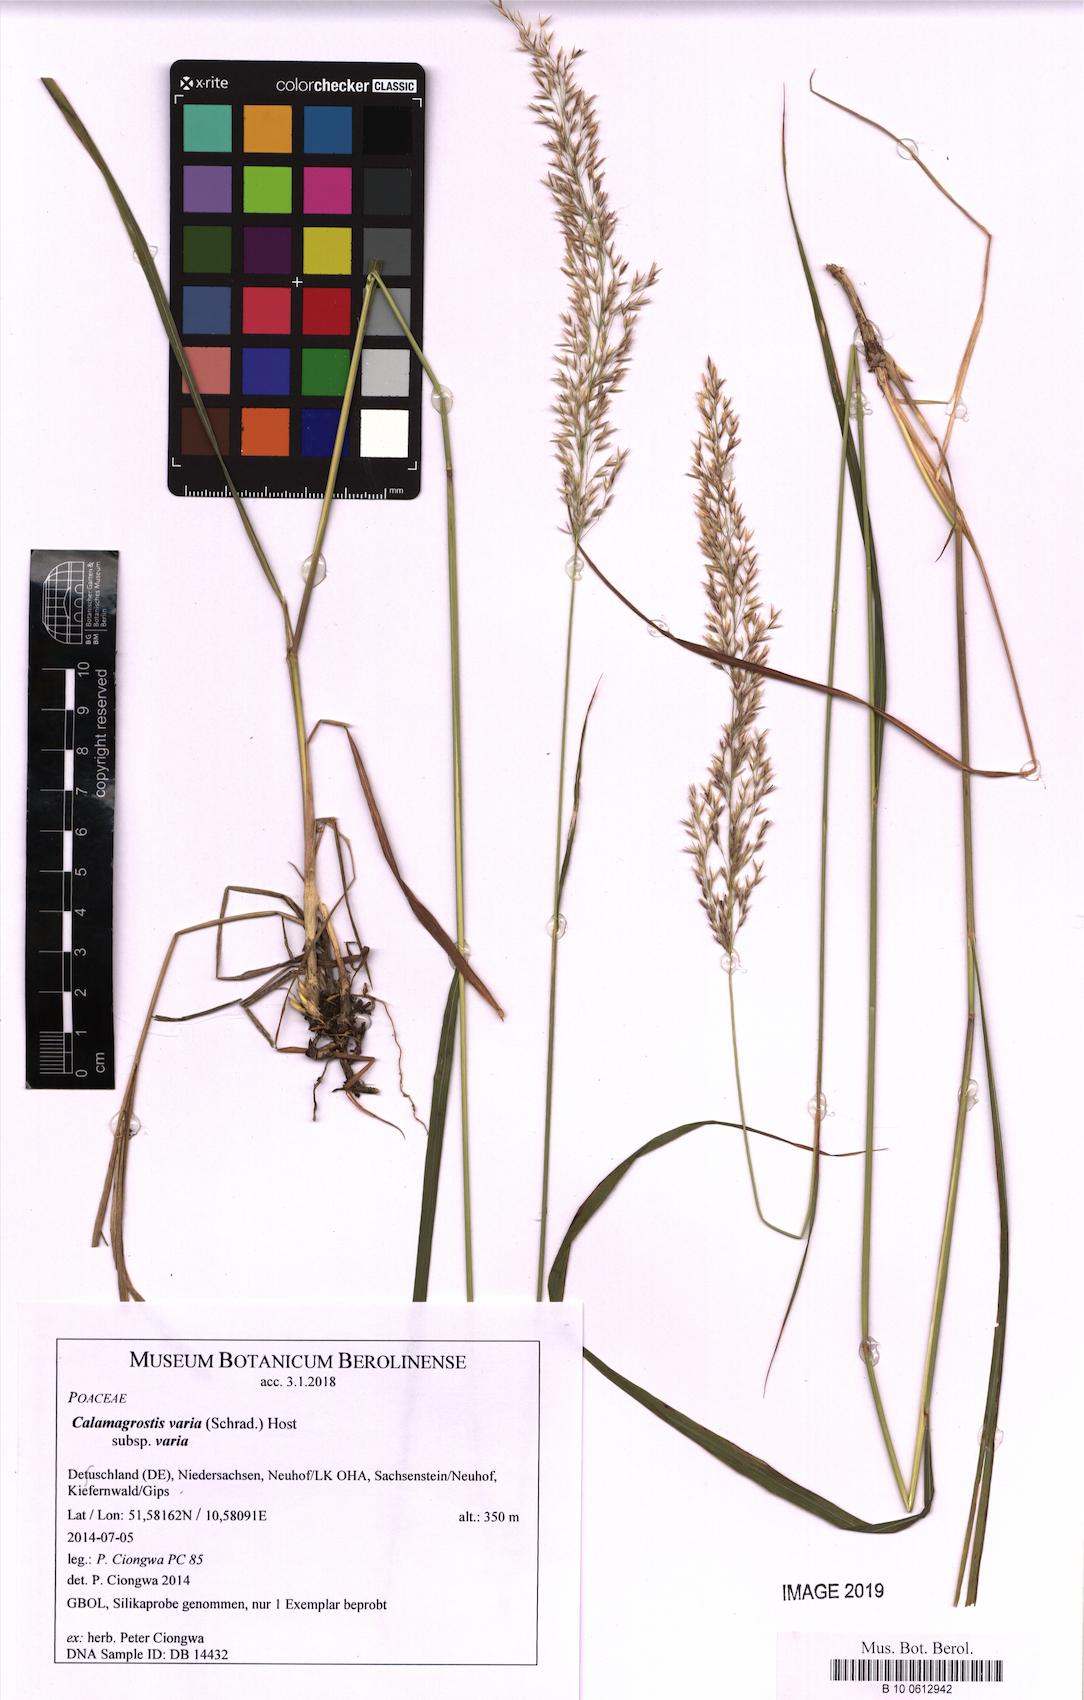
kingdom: Plantae
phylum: Tracheophyta
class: Liliopsida
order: Poales
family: Poaceae
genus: Calamagrostis
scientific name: Calamagrostis varia
